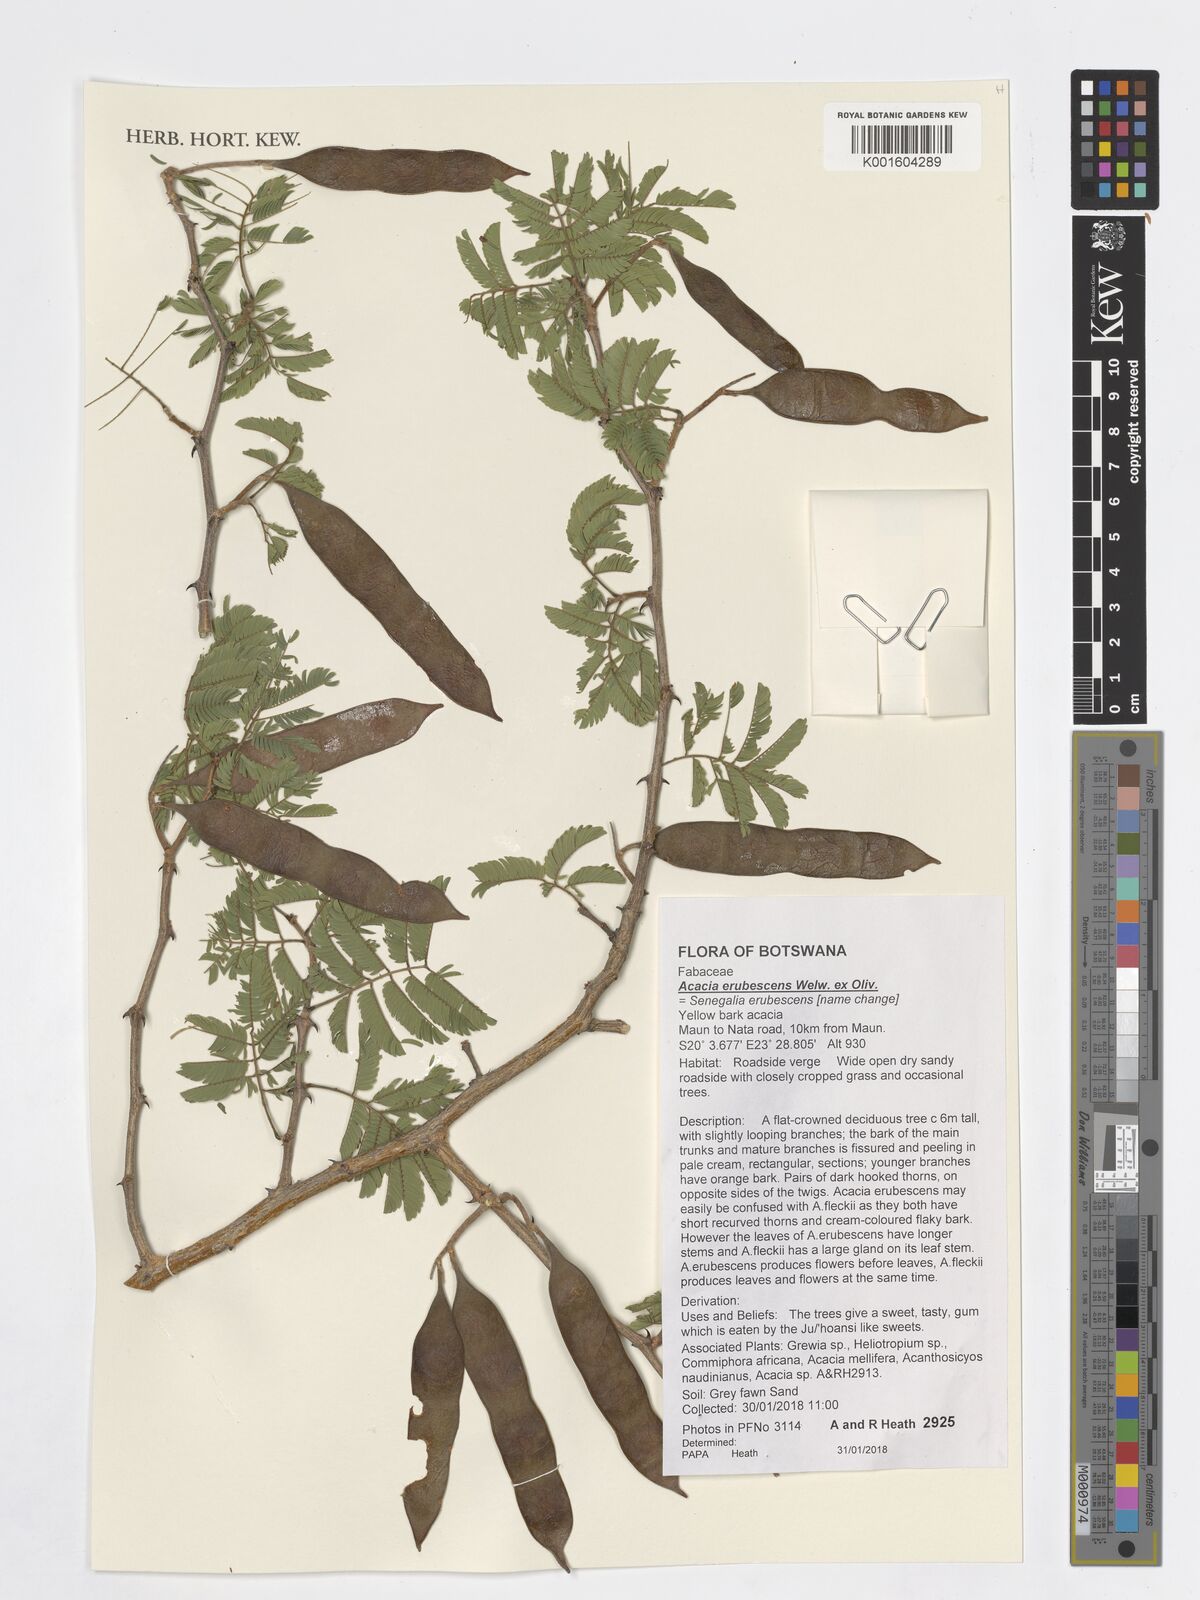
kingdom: Plantae
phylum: Tracheophyta
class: Magnoliopsida
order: Fabales
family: Fabaceae
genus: Senegalia
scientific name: Senegalia erubescens
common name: Bluethorn
